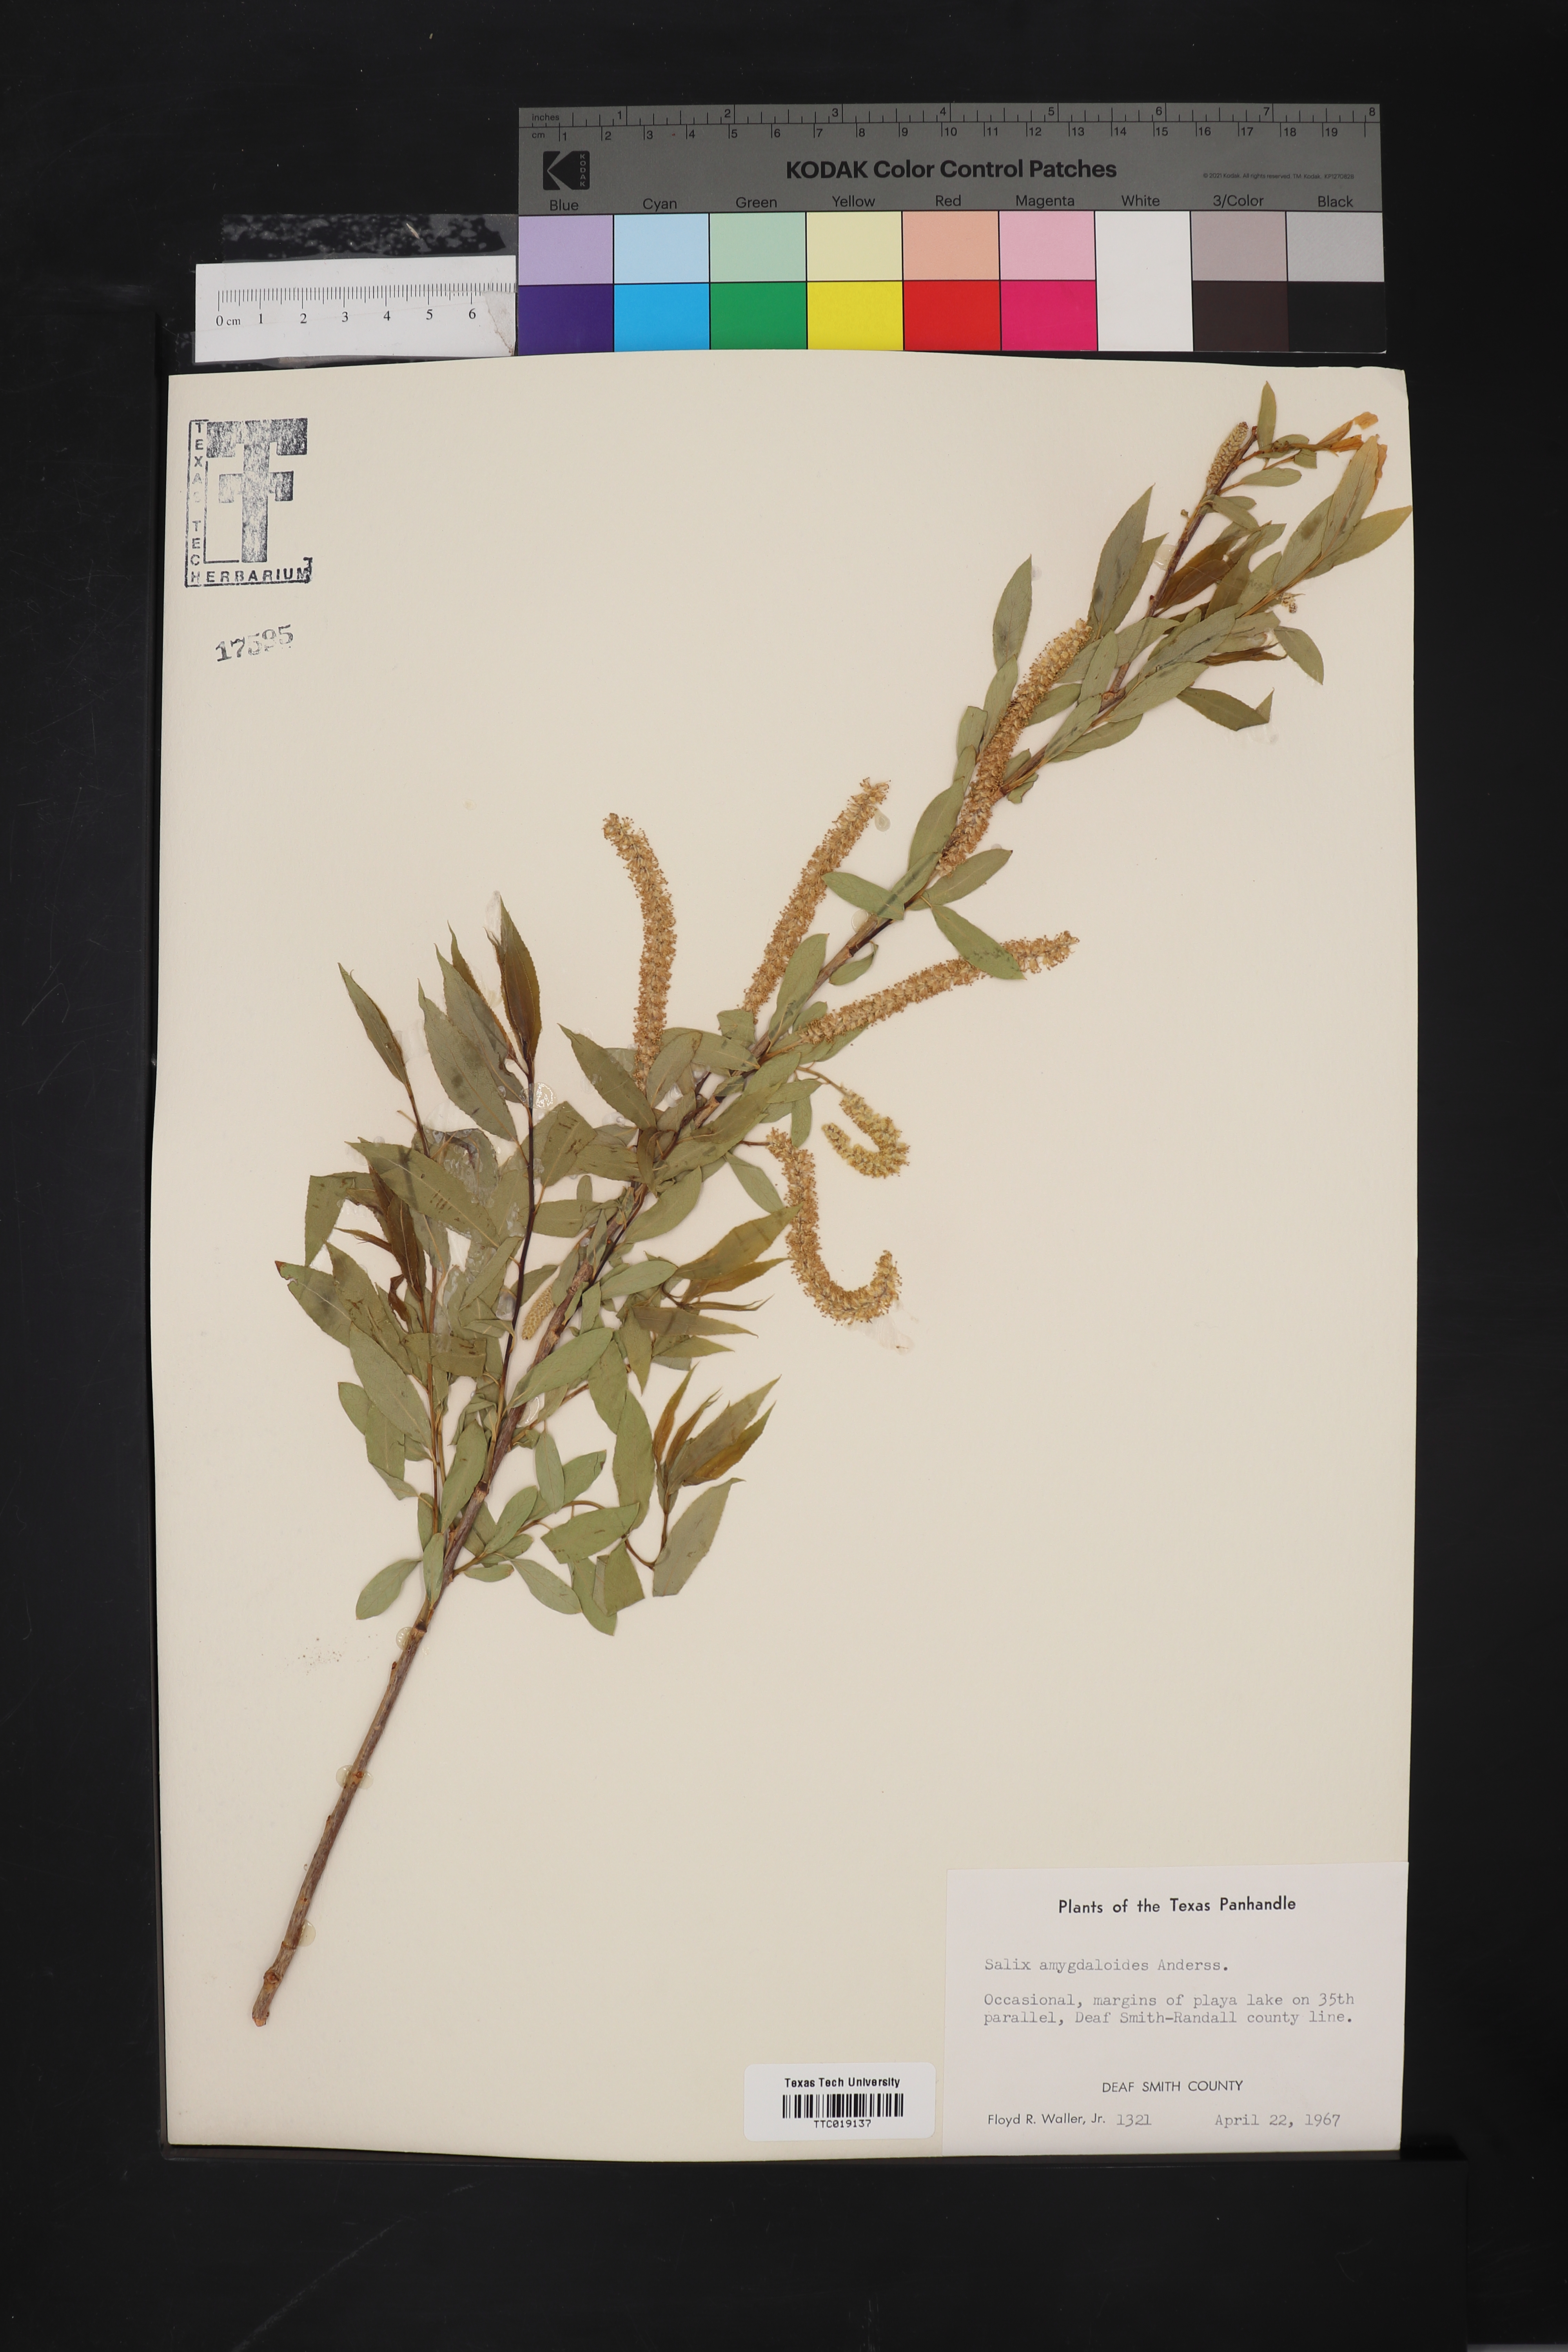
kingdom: Plantae
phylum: Tracheophyta
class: Magnoliopsida
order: Malpighiales
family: Salicaceae
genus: Salix
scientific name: Salix amygdaloides
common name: Peach leaf willow
